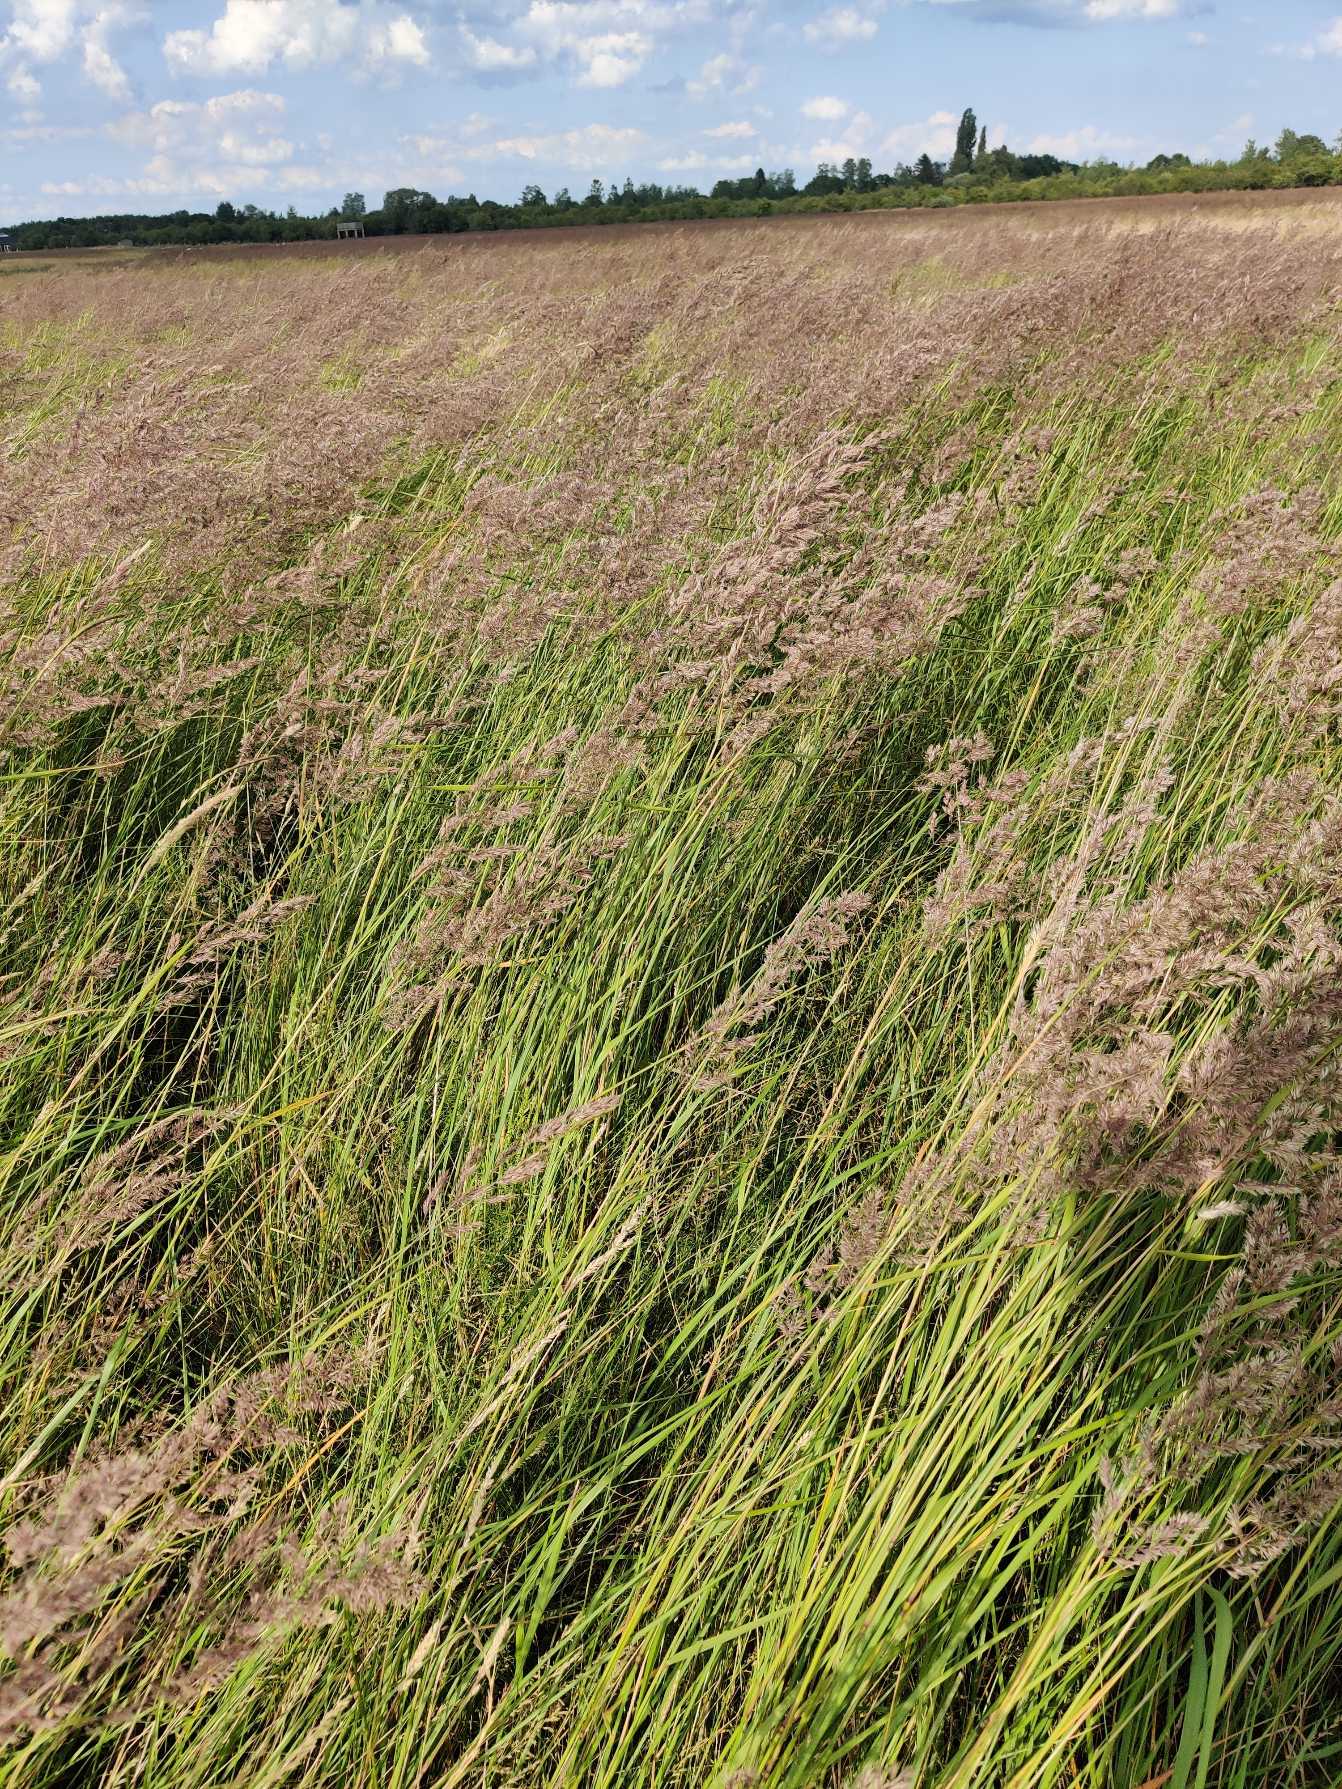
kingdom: Plantae
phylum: Tracheophyta
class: Liliopsida
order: Poales
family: Poaceae
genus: Calamagrostis
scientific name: Calamagrostis epigejos
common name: Bjerg-rørhvene
